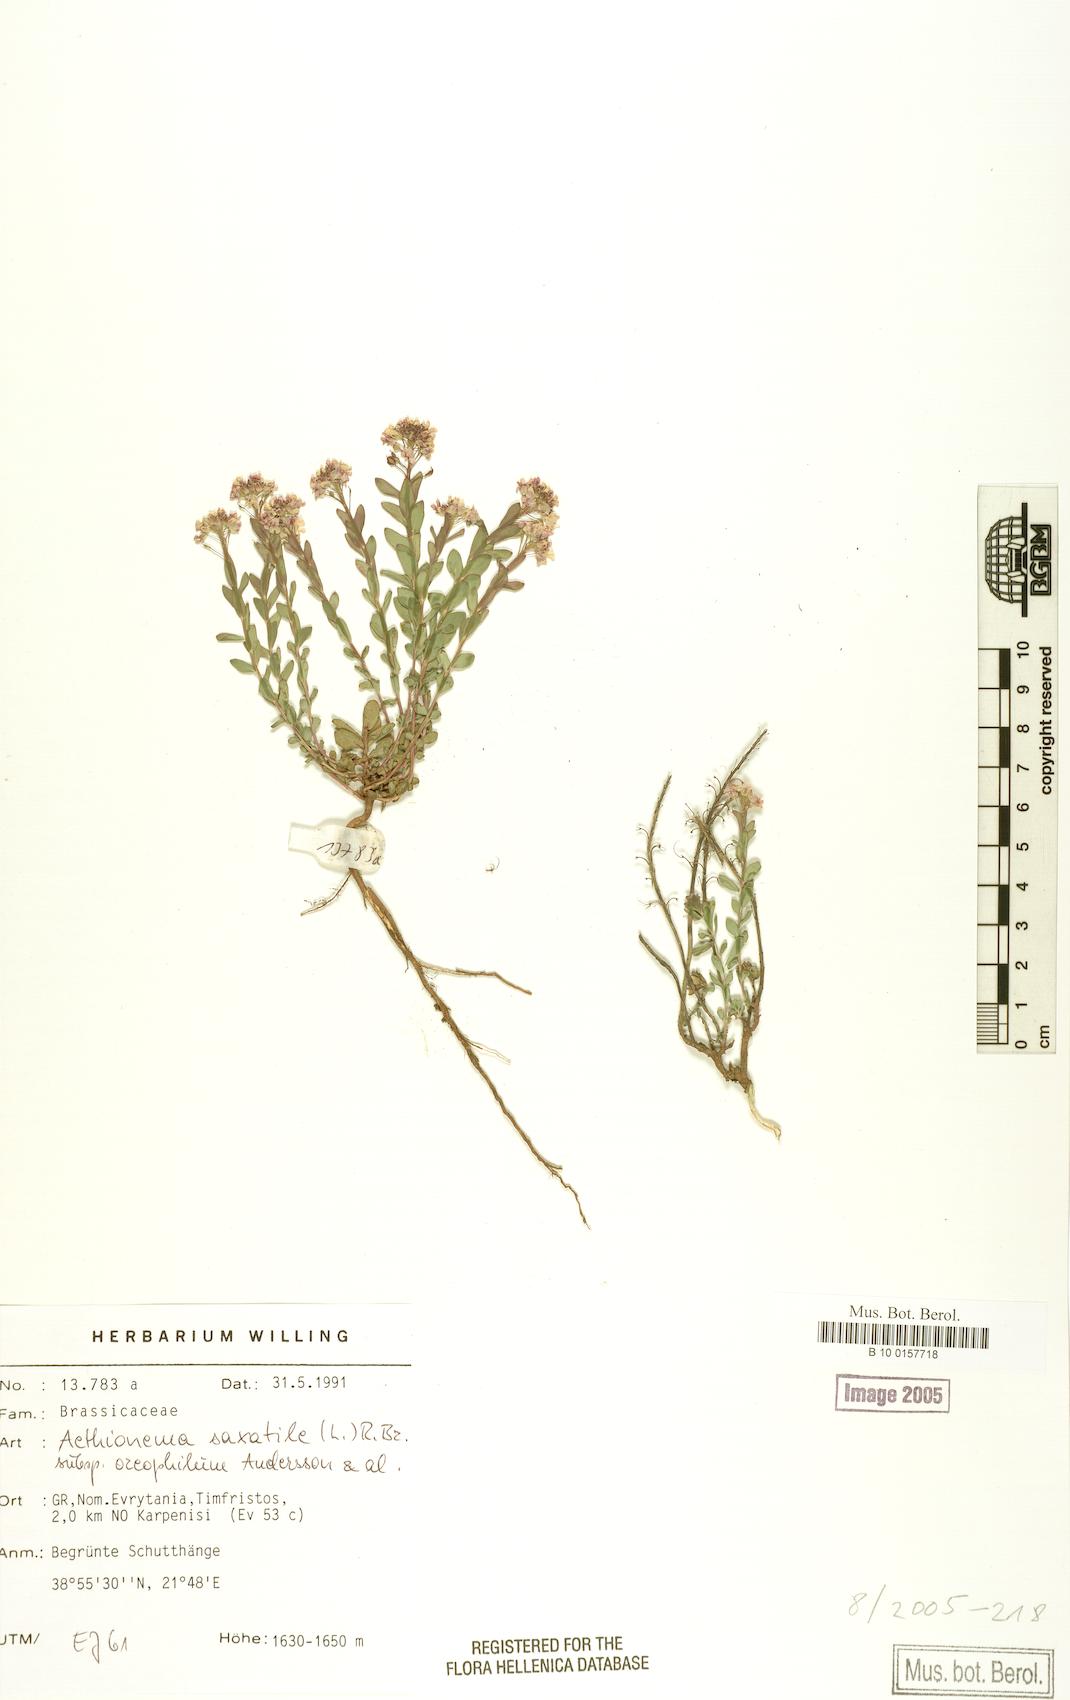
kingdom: Plantae
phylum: Tracheophyta
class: Magnoliopsida
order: Brassicales
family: Brassicaceae
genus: Aethionema
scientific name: Aethionema saxatile
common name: Burnt candytuft
